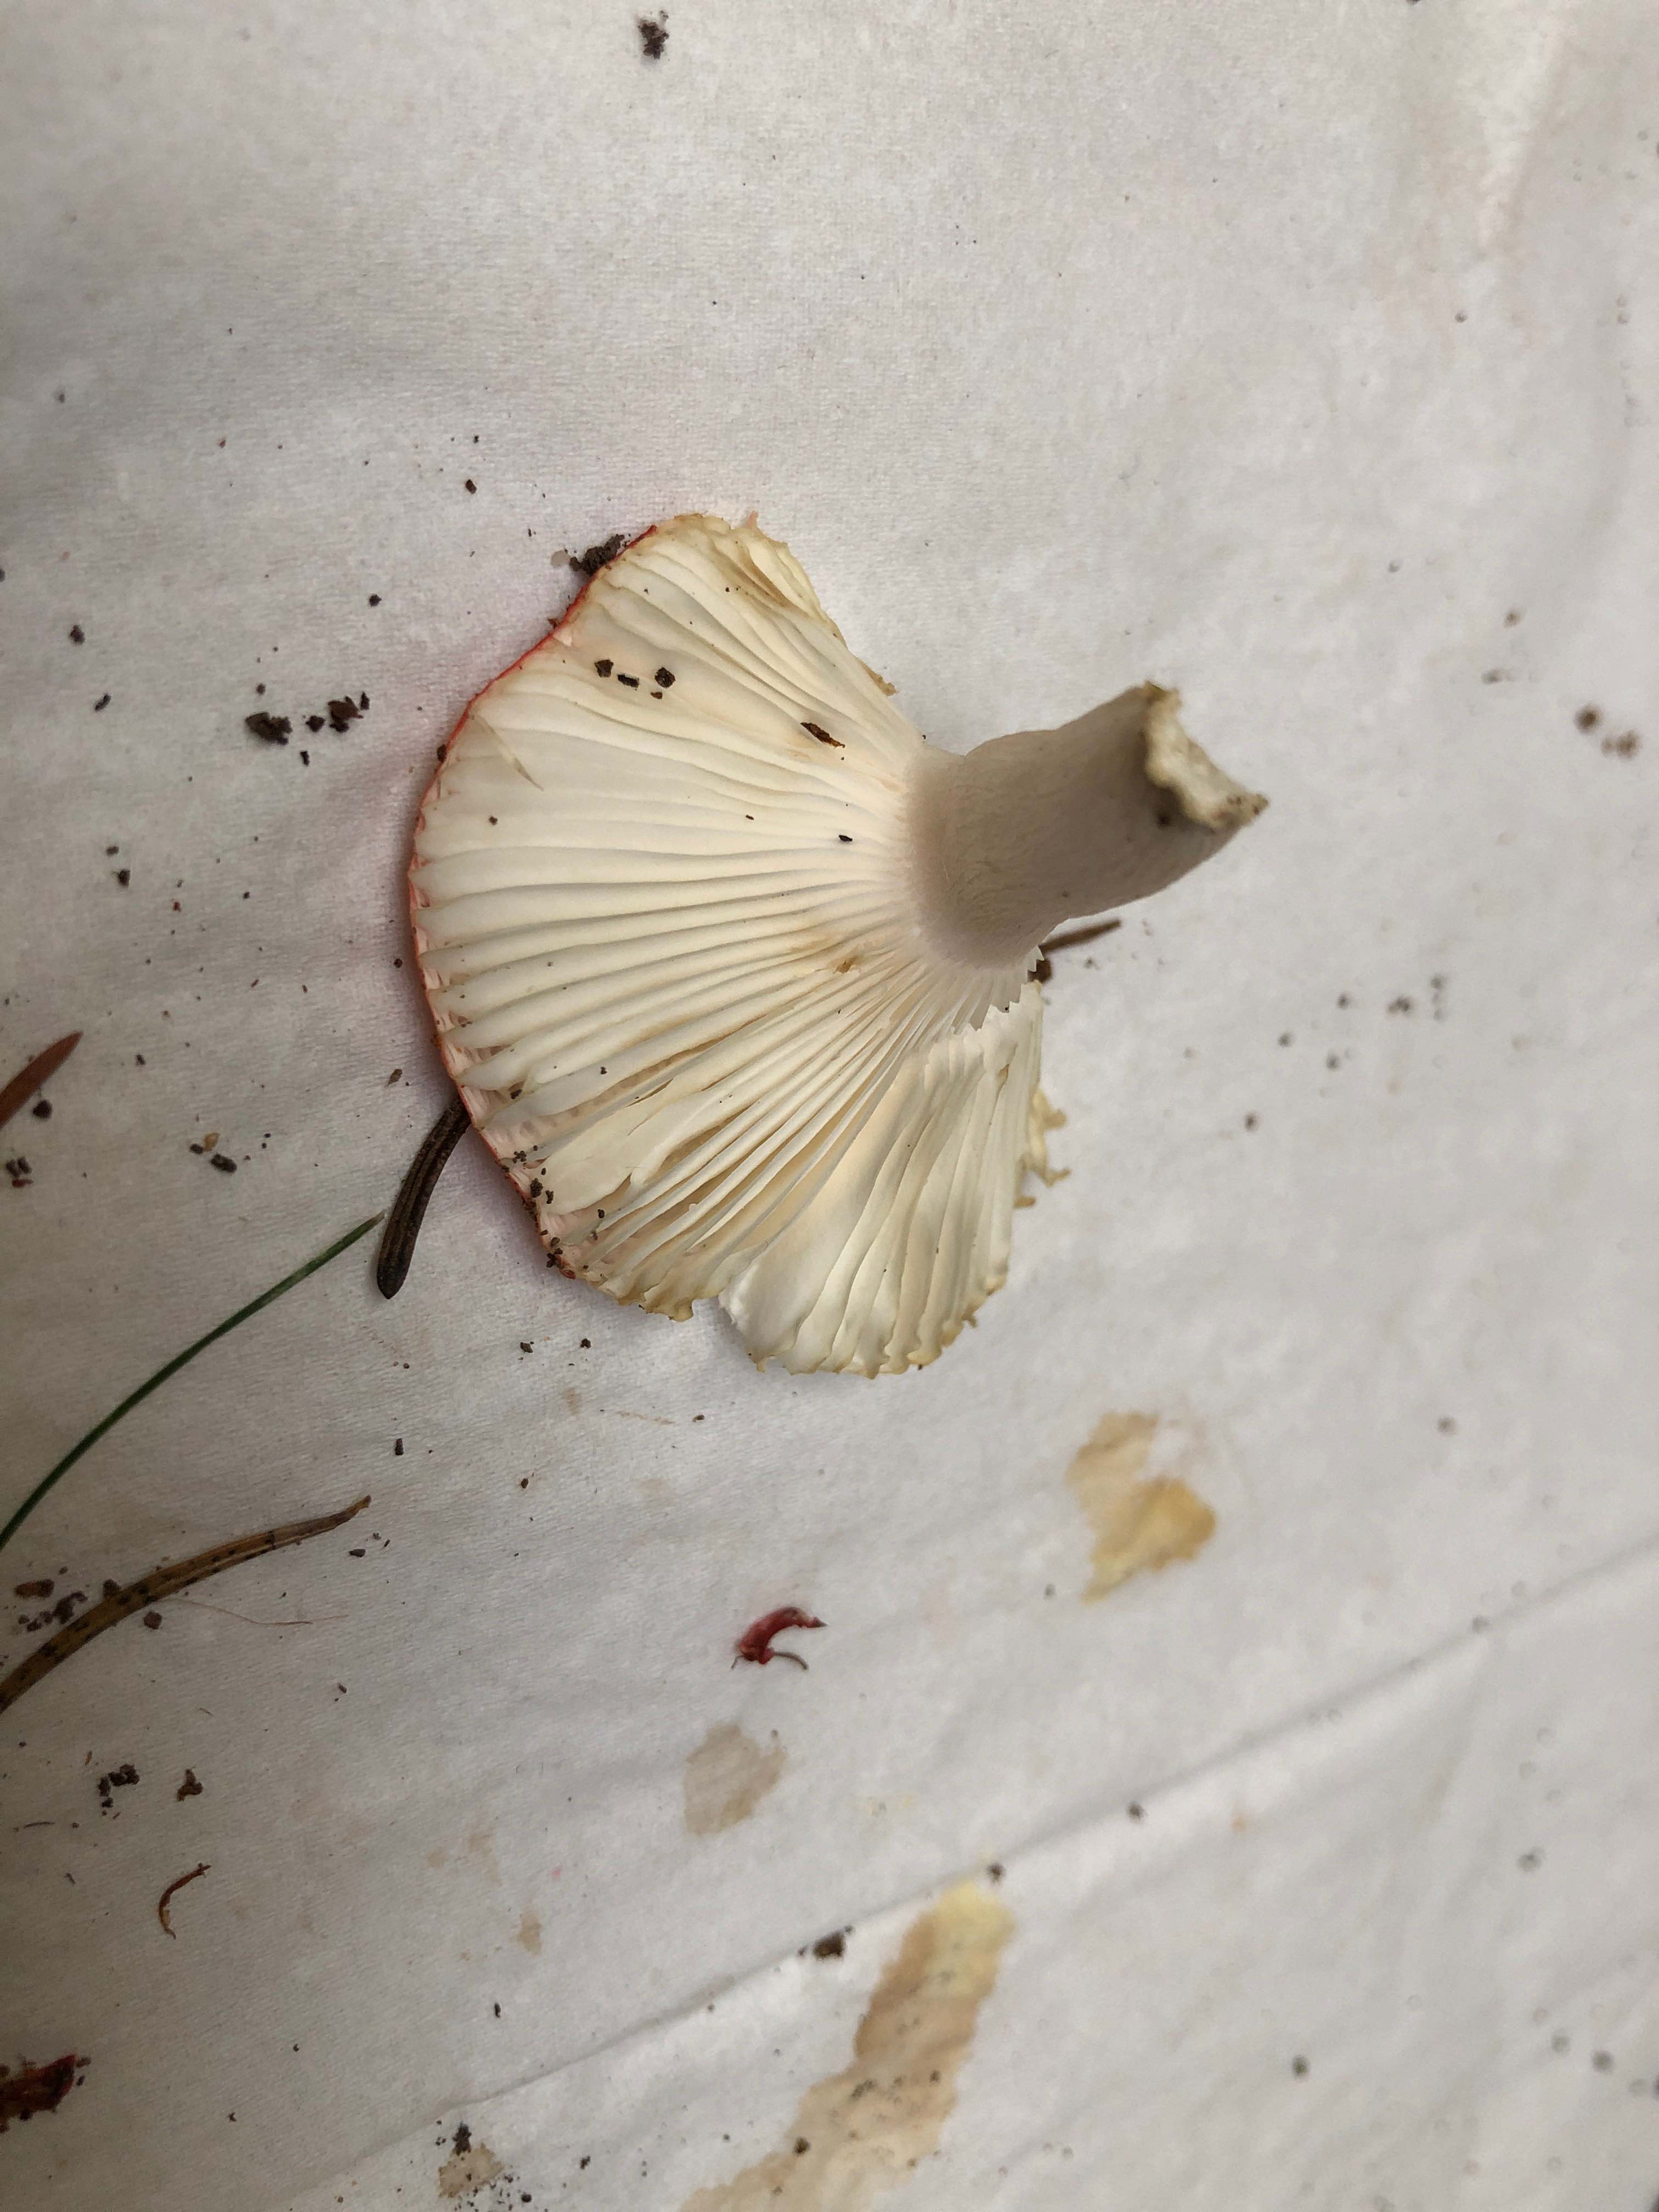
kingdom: Fungi
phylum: Basidiomycota
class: Agaricomycetes
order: Russulales
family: Russulaceae
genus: Russula
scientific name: Russula
